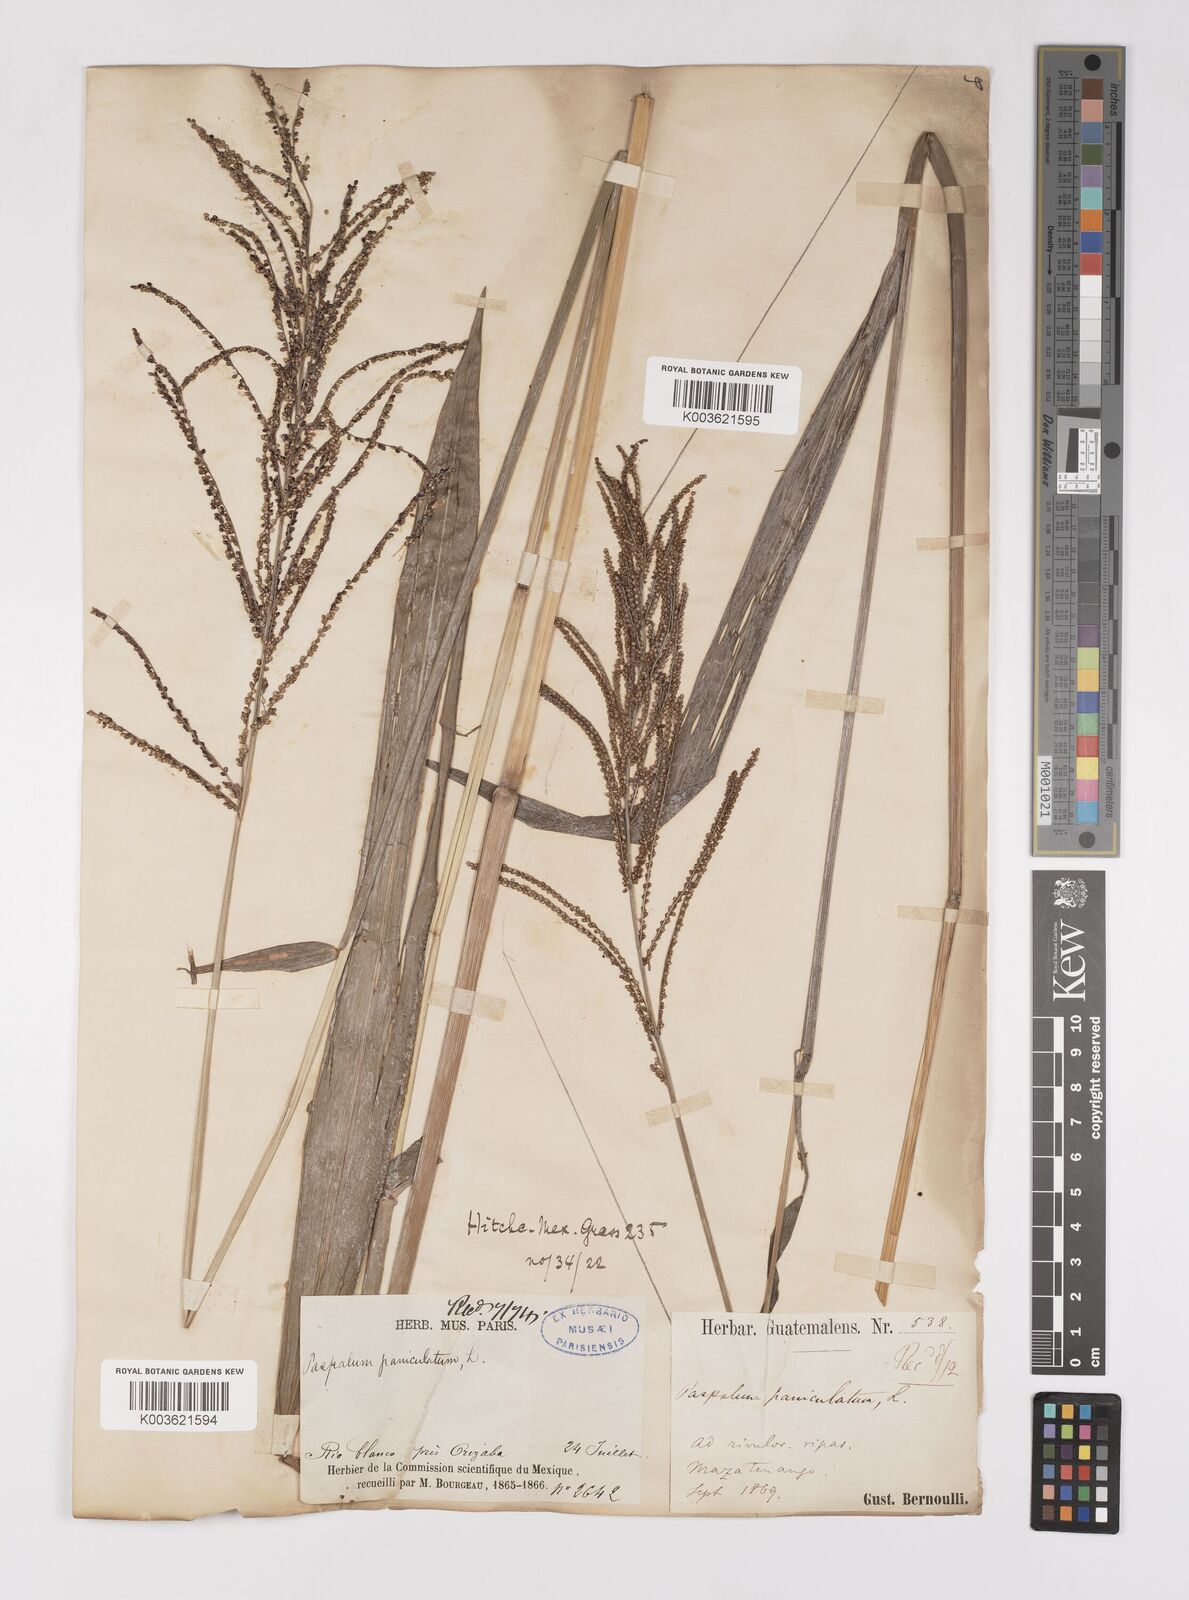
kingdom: Plantae
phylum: Tracheophyta
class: Liliopsida
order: Poales
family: Poaceae
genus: Paspalum
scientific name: Paspalum paniculatum
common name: Arrocillo
